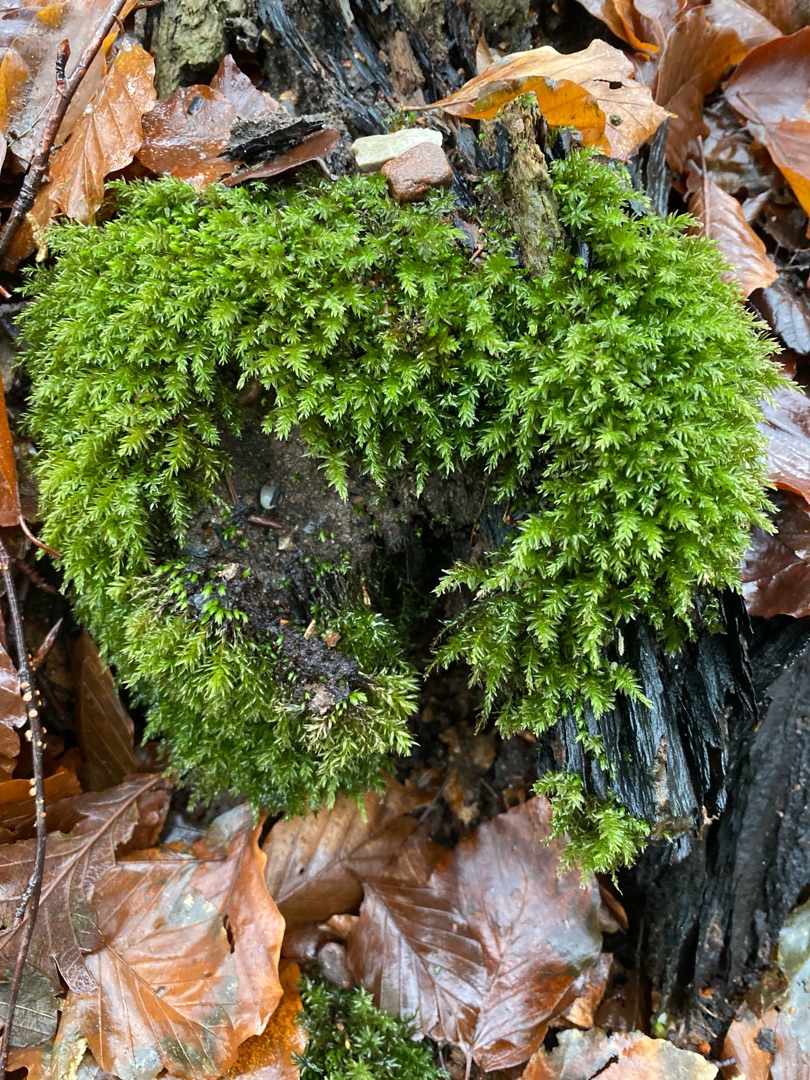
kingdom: Plantae
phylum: Bryophyta
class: Bryopsida
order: Bryales
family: Mniaceae
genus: Mnium
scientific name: Mnium hornum
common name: Brunfiltet stjernemos
